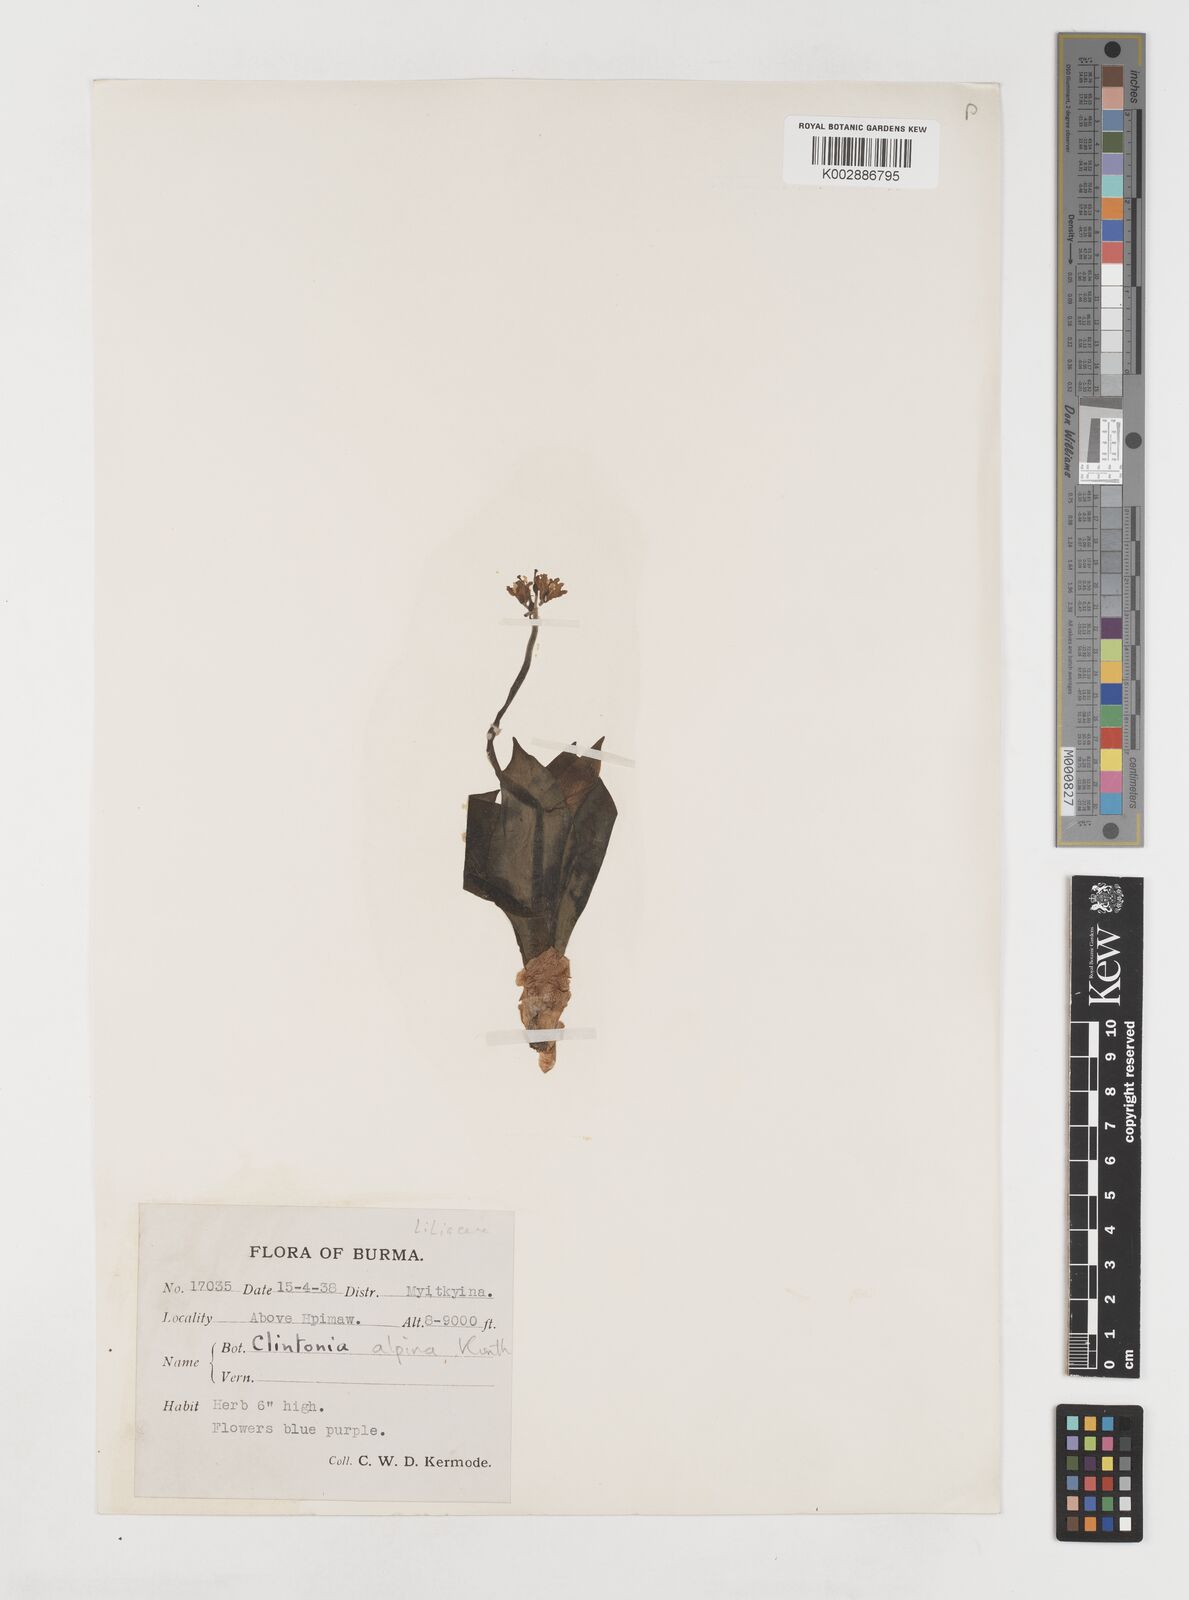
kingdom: Plantae
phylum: Tracheophyta
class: Liliopsida
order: Liliales
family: Liliaceae
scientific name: Liliaceae
